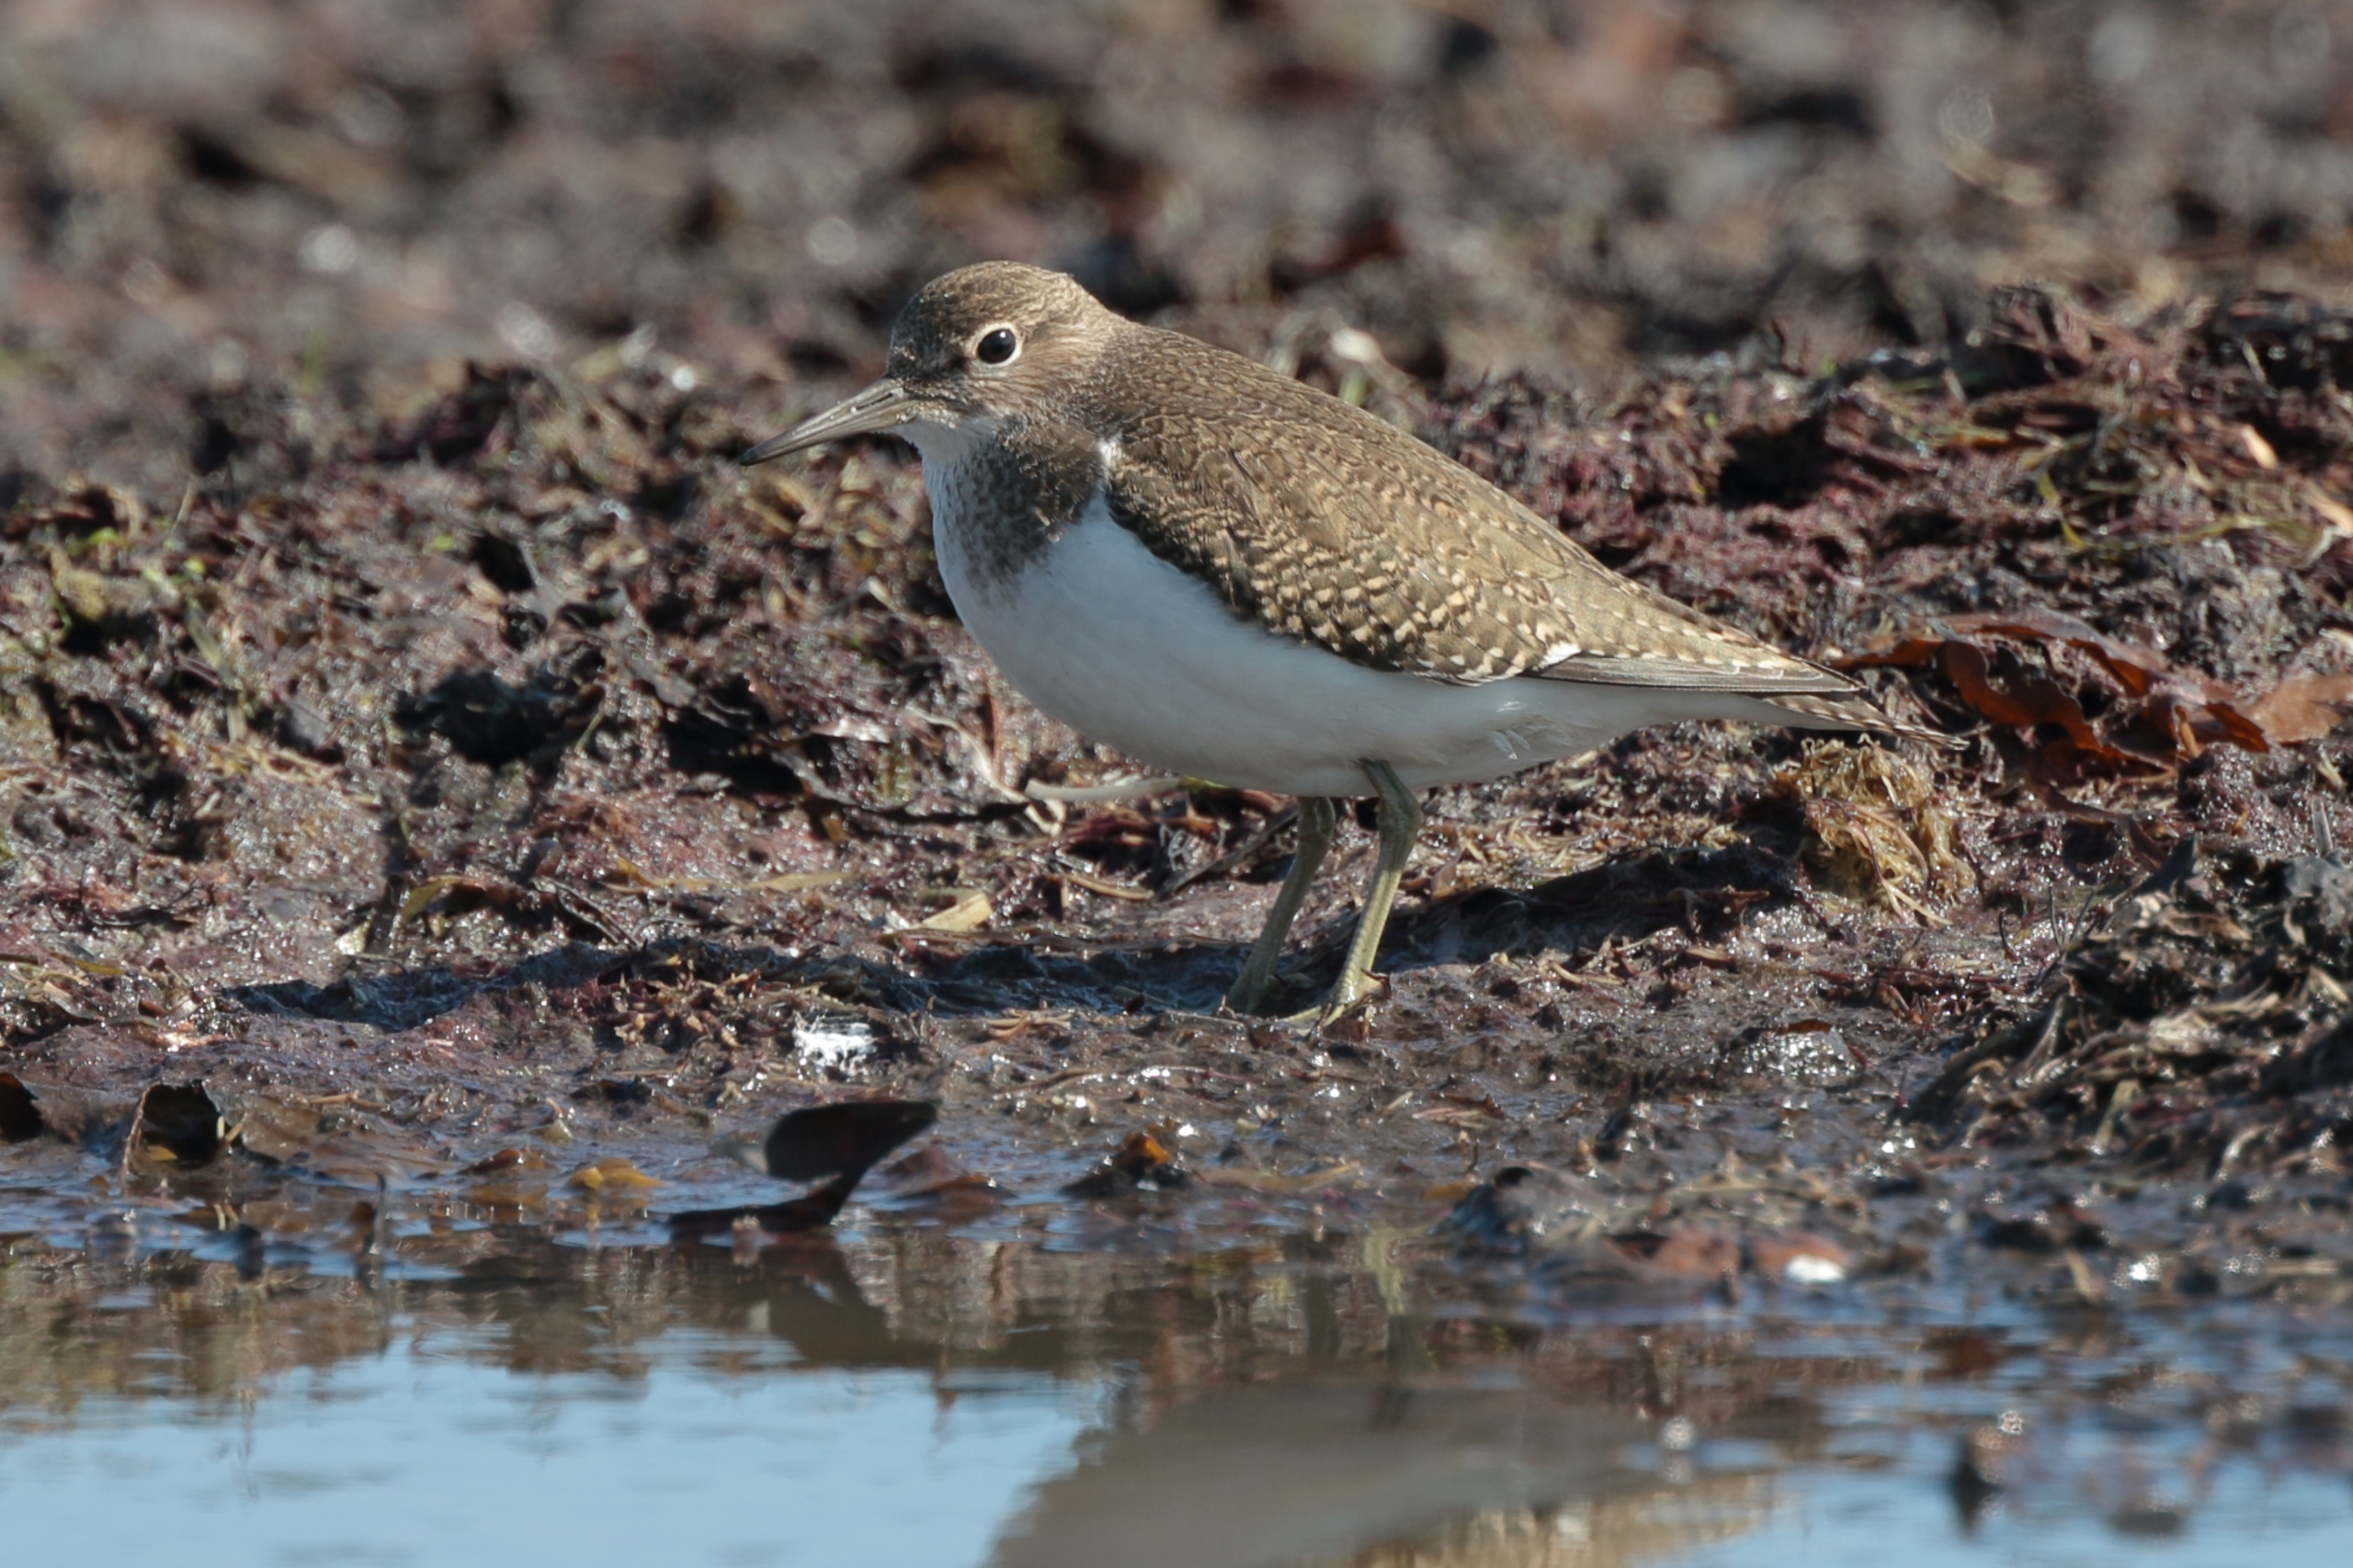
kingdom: Animalia
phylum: Chordata
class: Aves
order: Charadriiformes
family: Scolopacidae
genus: Actitis
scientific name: Actitis hypoleucos
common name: Mudderklire
